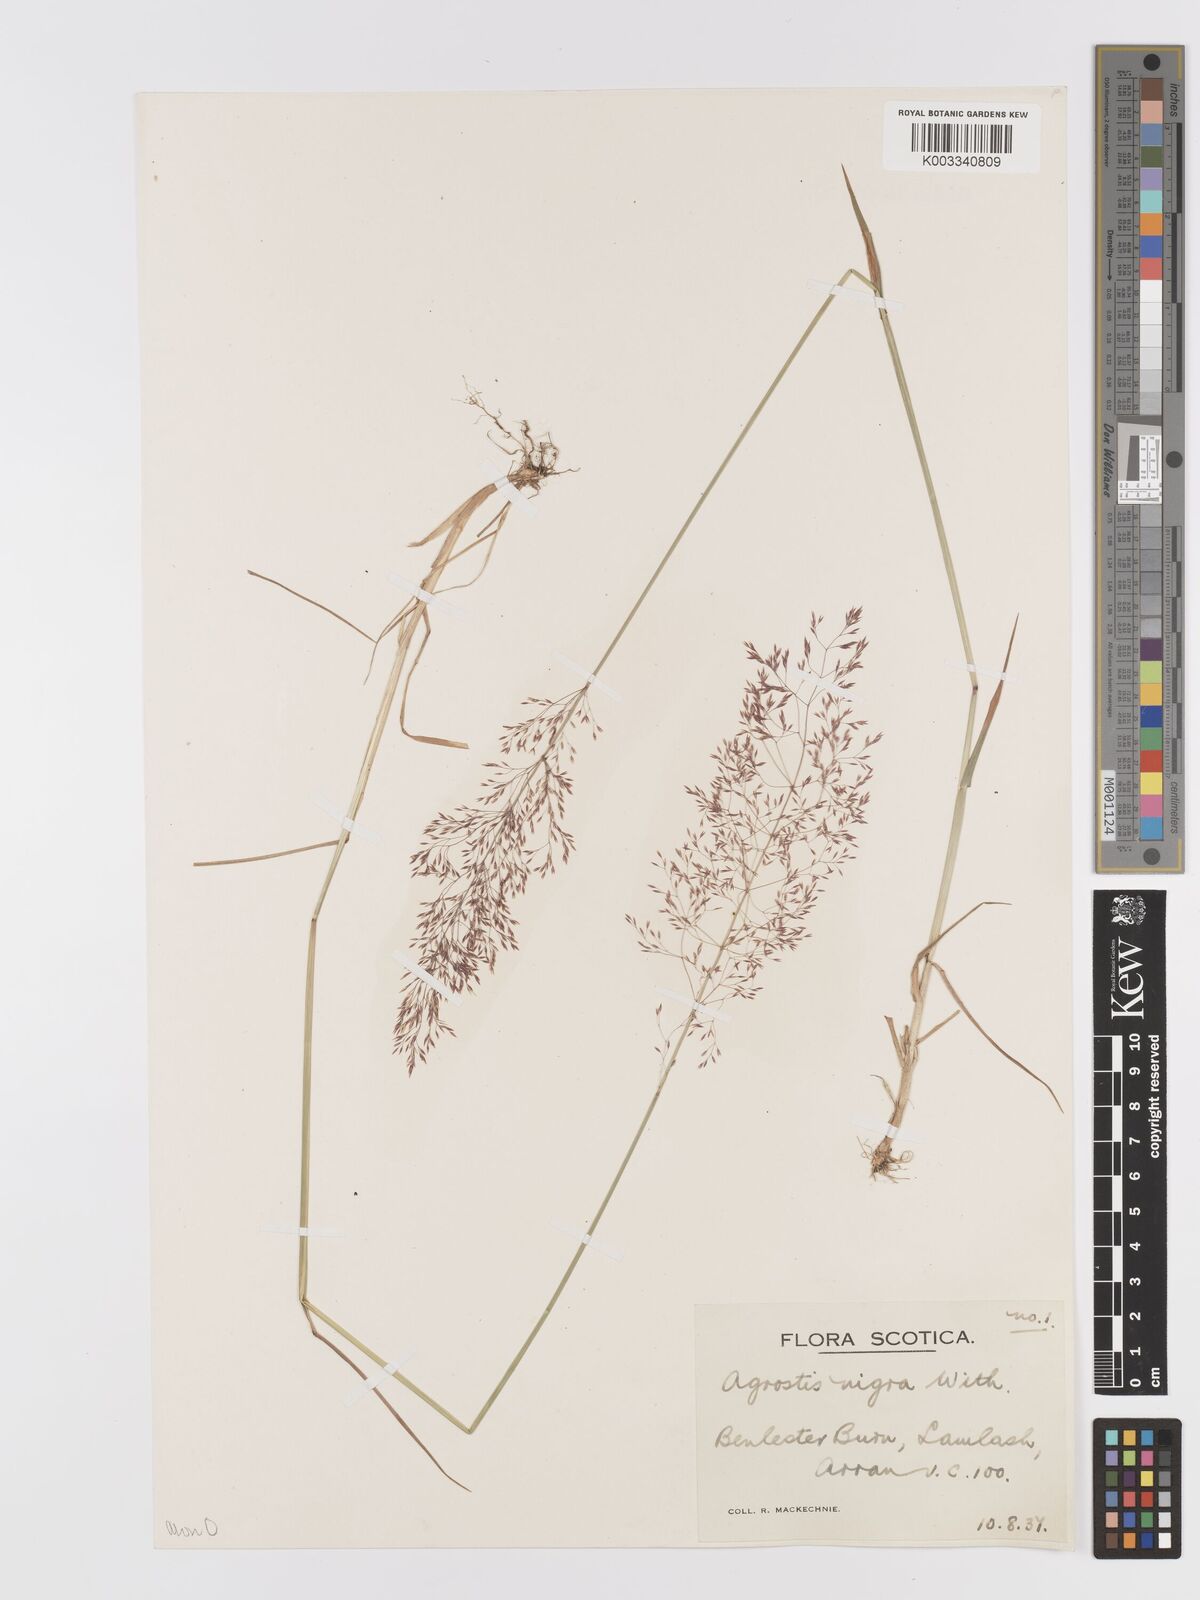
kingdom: Plantae
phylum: Tracheophyta
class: Liliopsida
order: Poales
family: Poaceae
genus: Agrostis
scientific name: Agrostis capillaris
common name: Colonial bentgrass
